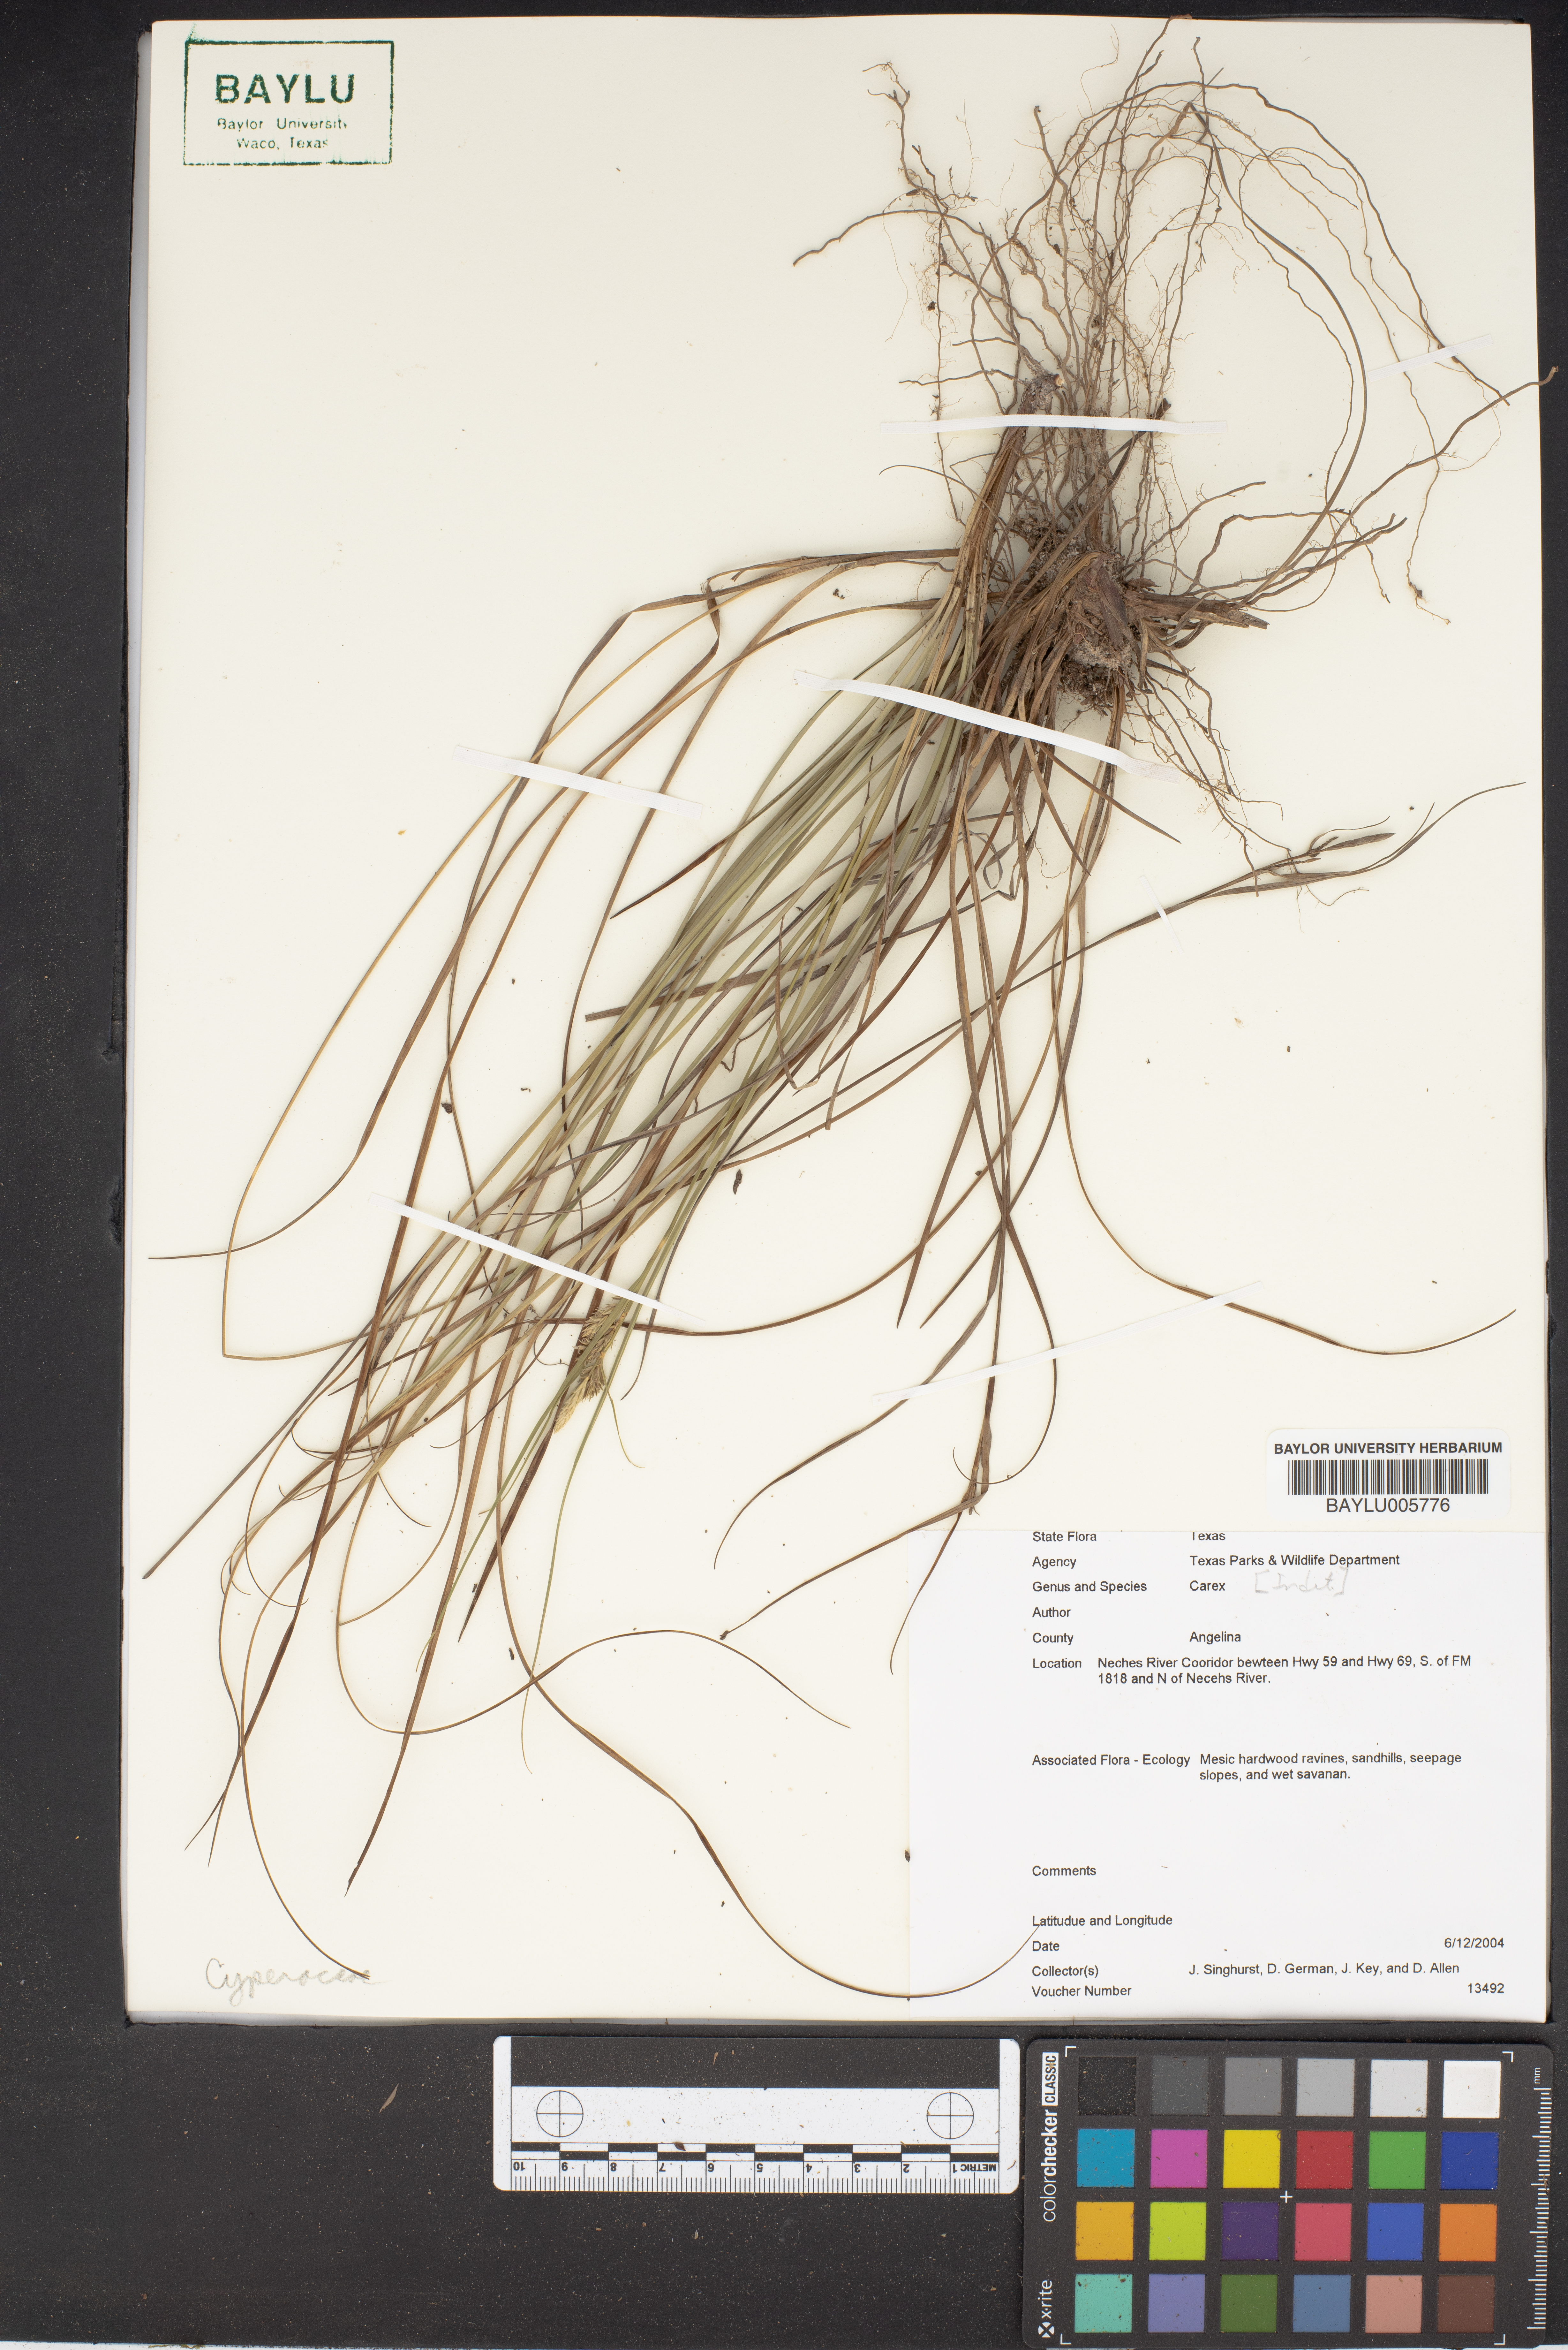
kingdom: Plantae
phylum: Tracheophyta
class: Liliopsida
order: Poales
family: Cyperaceae
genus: Carex
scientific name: Carex
